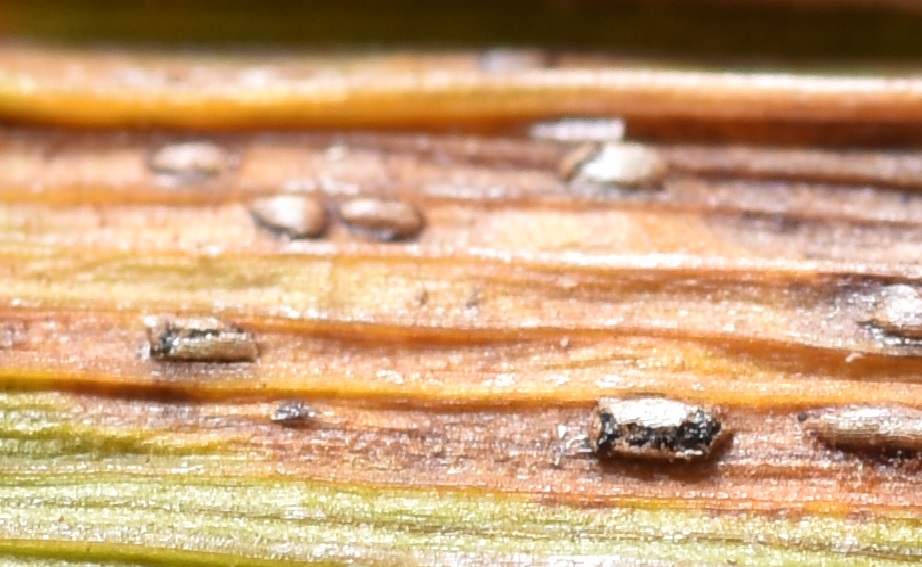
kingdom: Fungi
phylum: Ascomycota
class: Dothideomycetes
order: Pleosporales
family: Phaeosphaeriaceae
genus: Sphaerellopsis
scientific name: Sphaerellopsis filum
